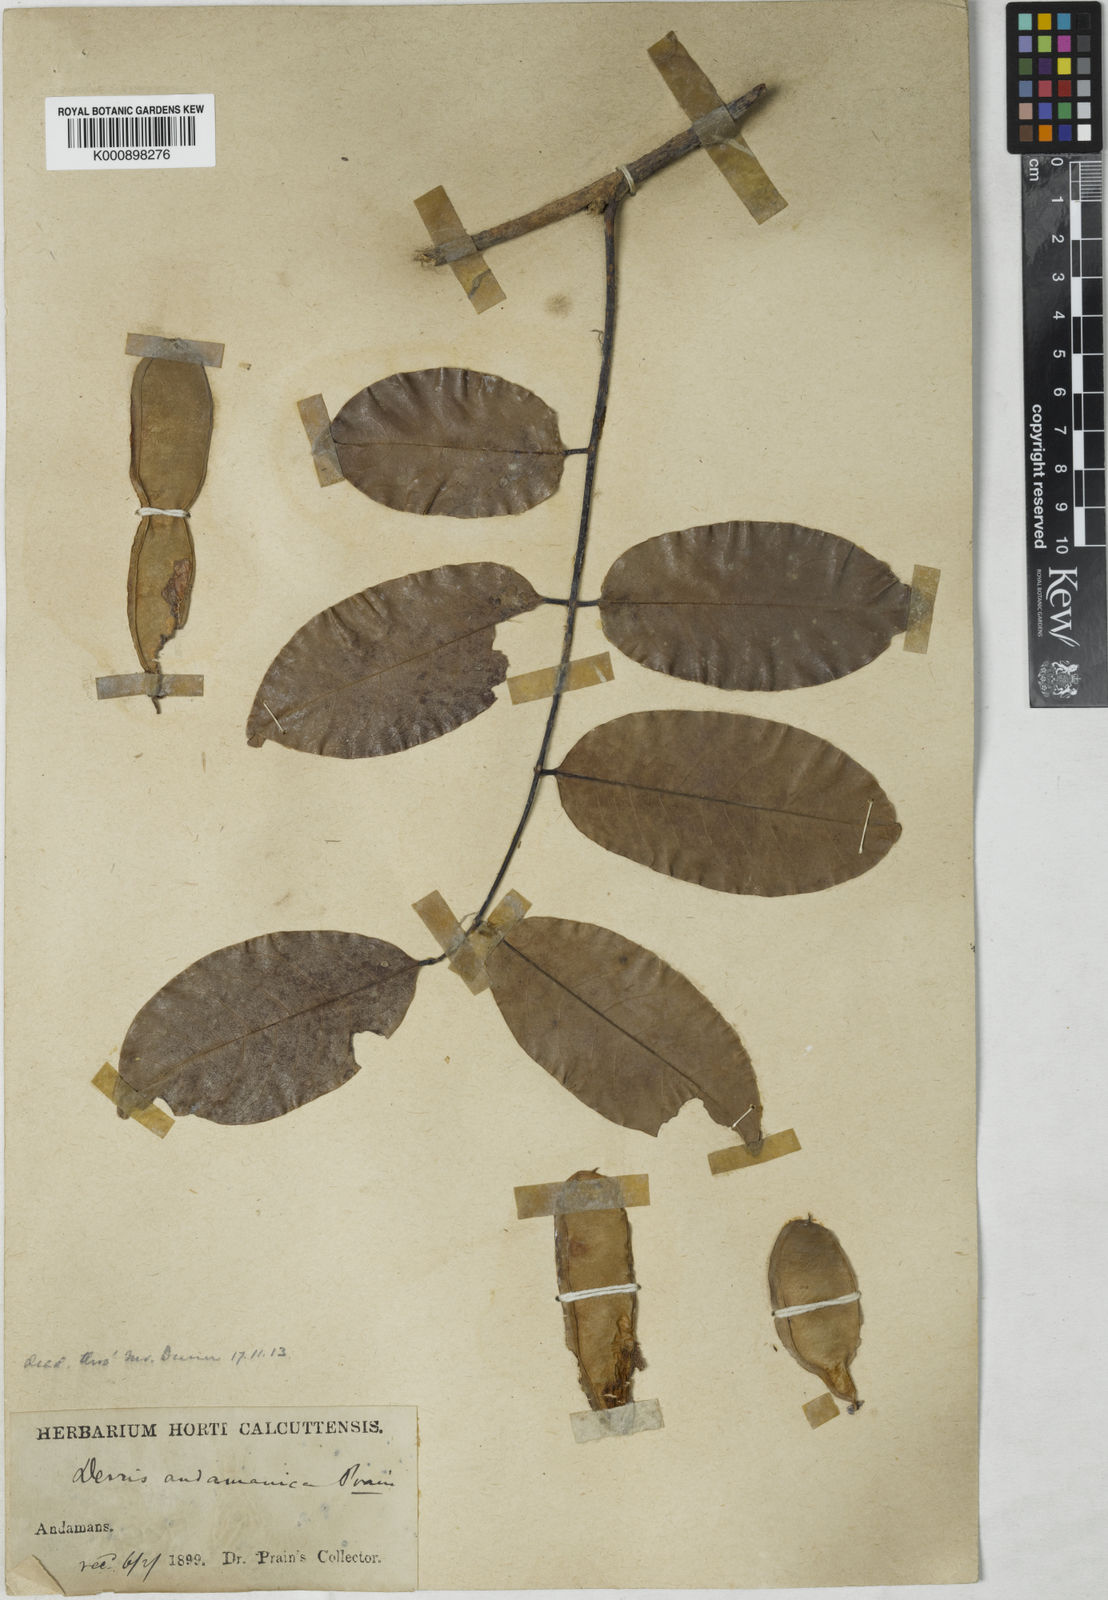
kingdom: Plantae
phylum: Tracheophyta
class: Magnoliopsida
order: Fabales
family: Fabaceae
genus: Derris
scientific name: Derris andamanica
